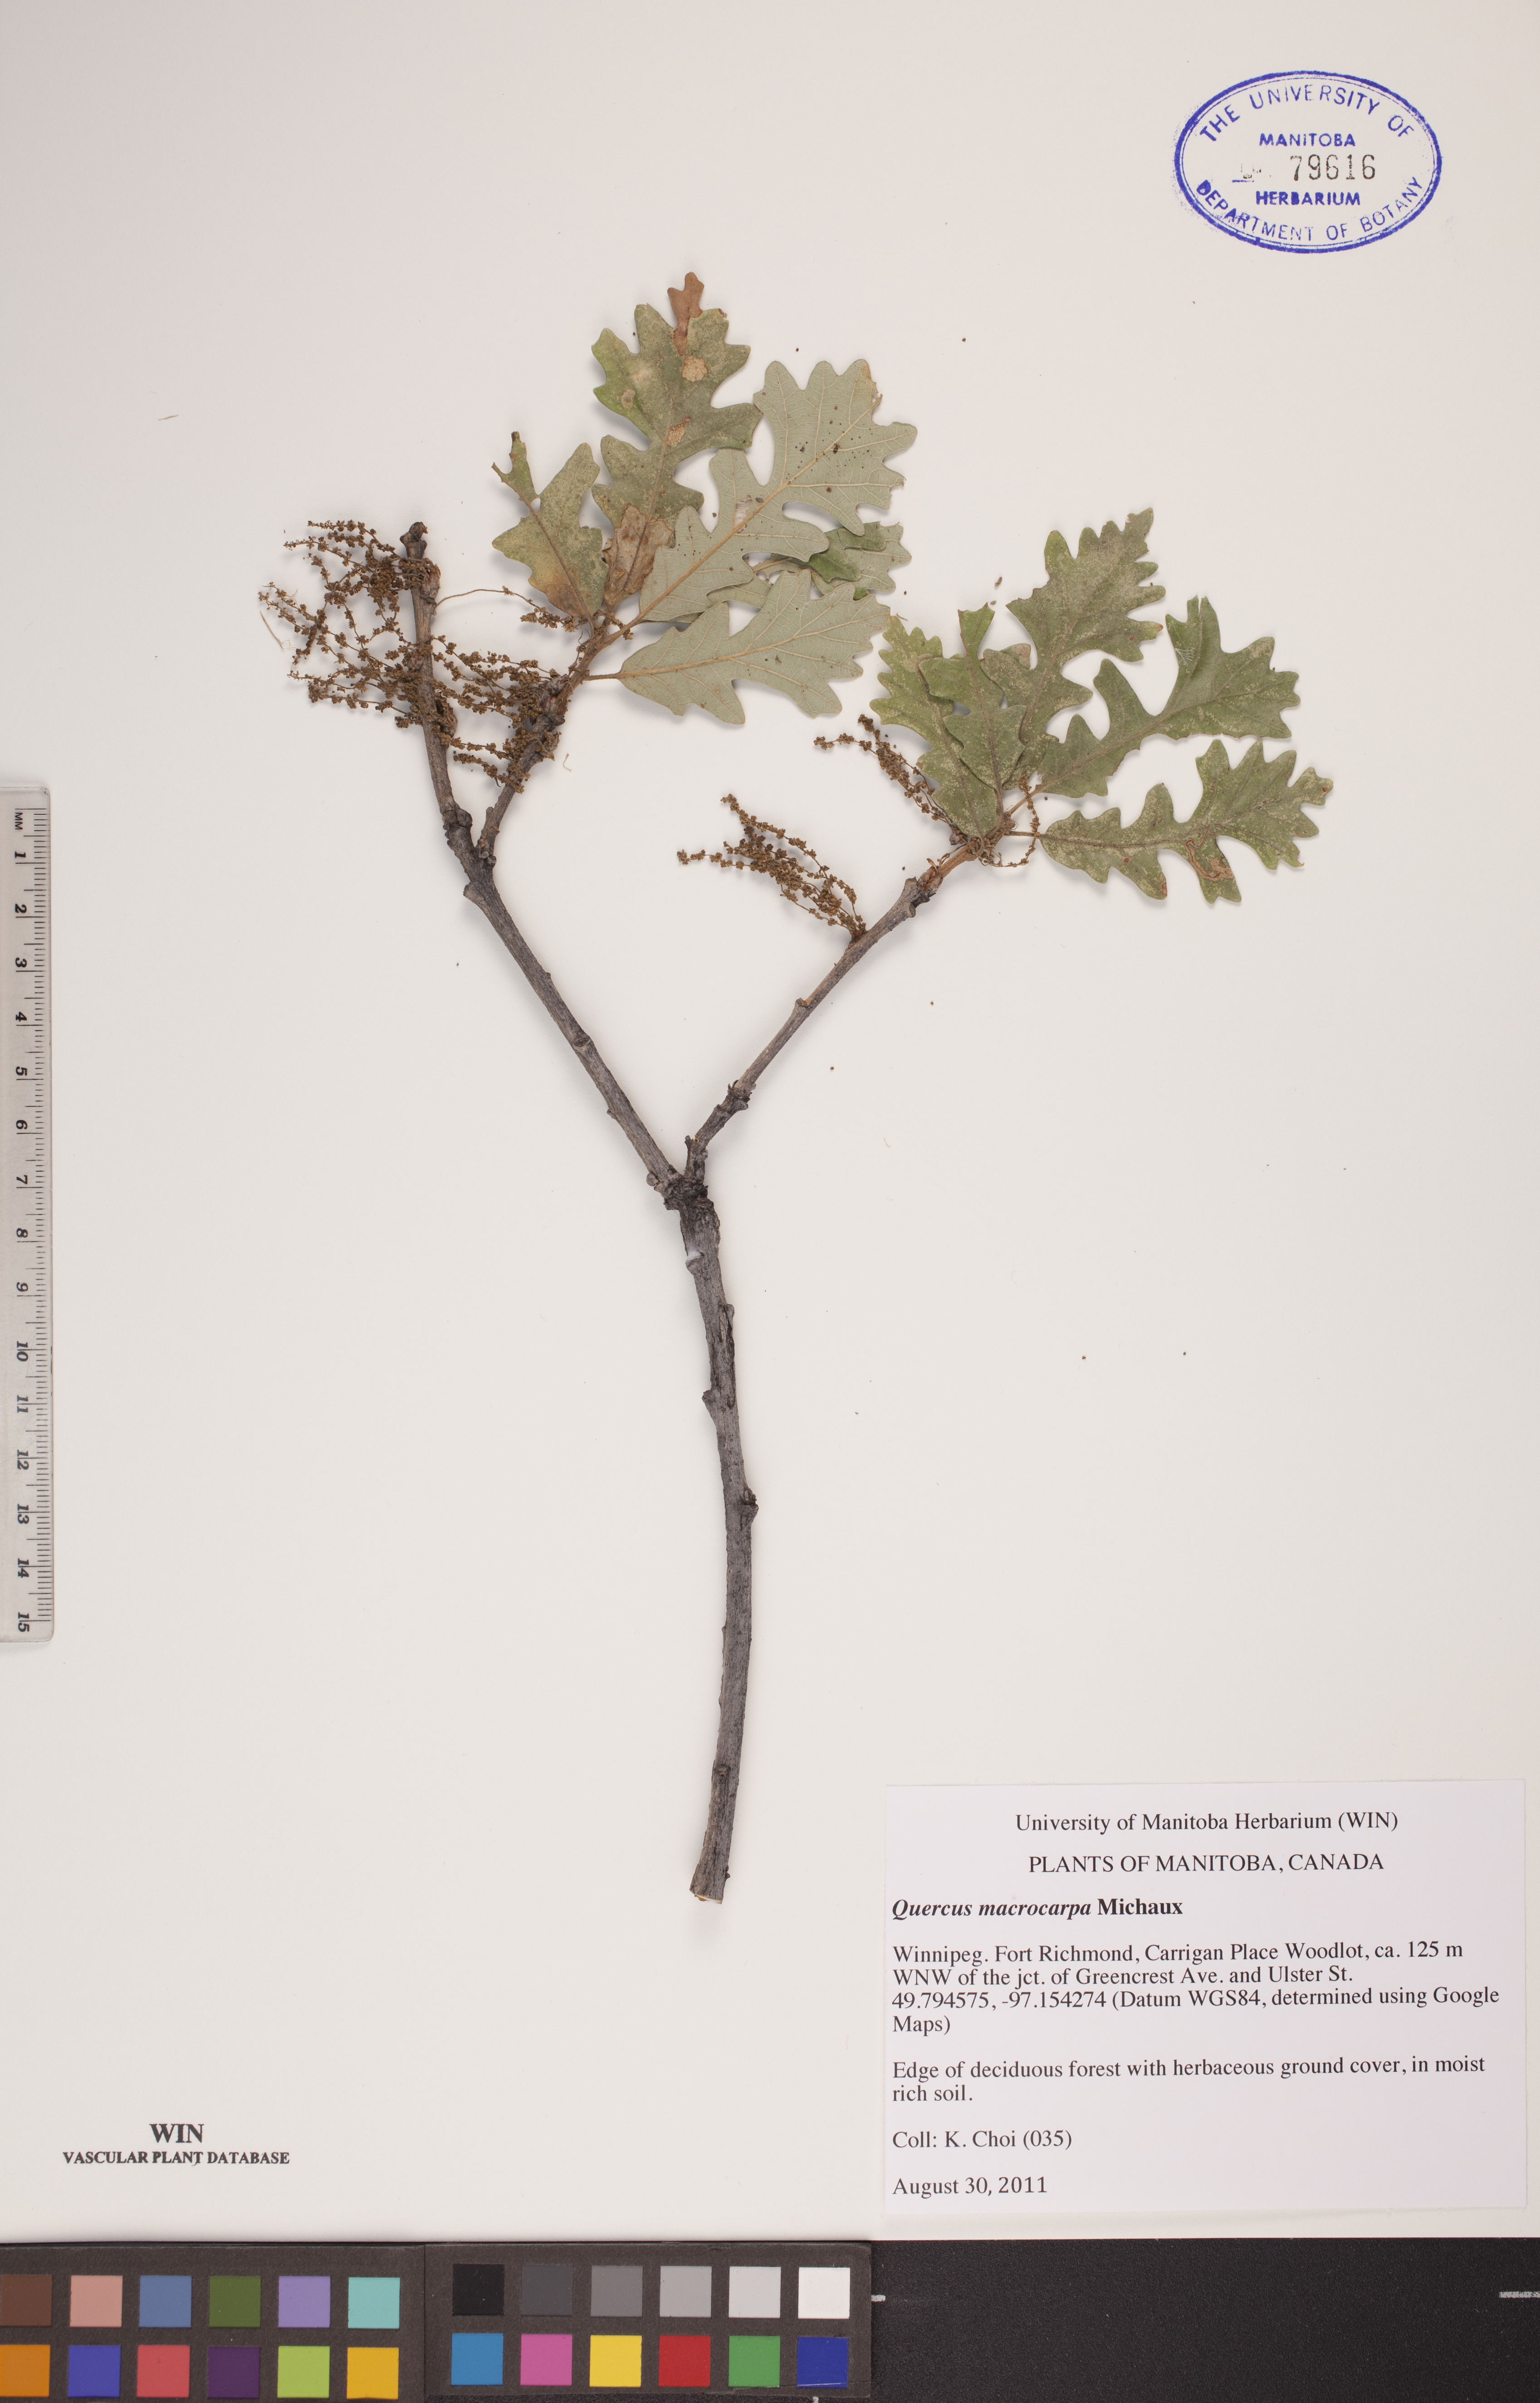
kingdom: Plantae
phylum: Tracheophyta
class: Magnoliopsida
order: Fagales
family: Fagaceae
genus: Quercus
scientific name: Quercus macrocarpa
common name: Bur oak
